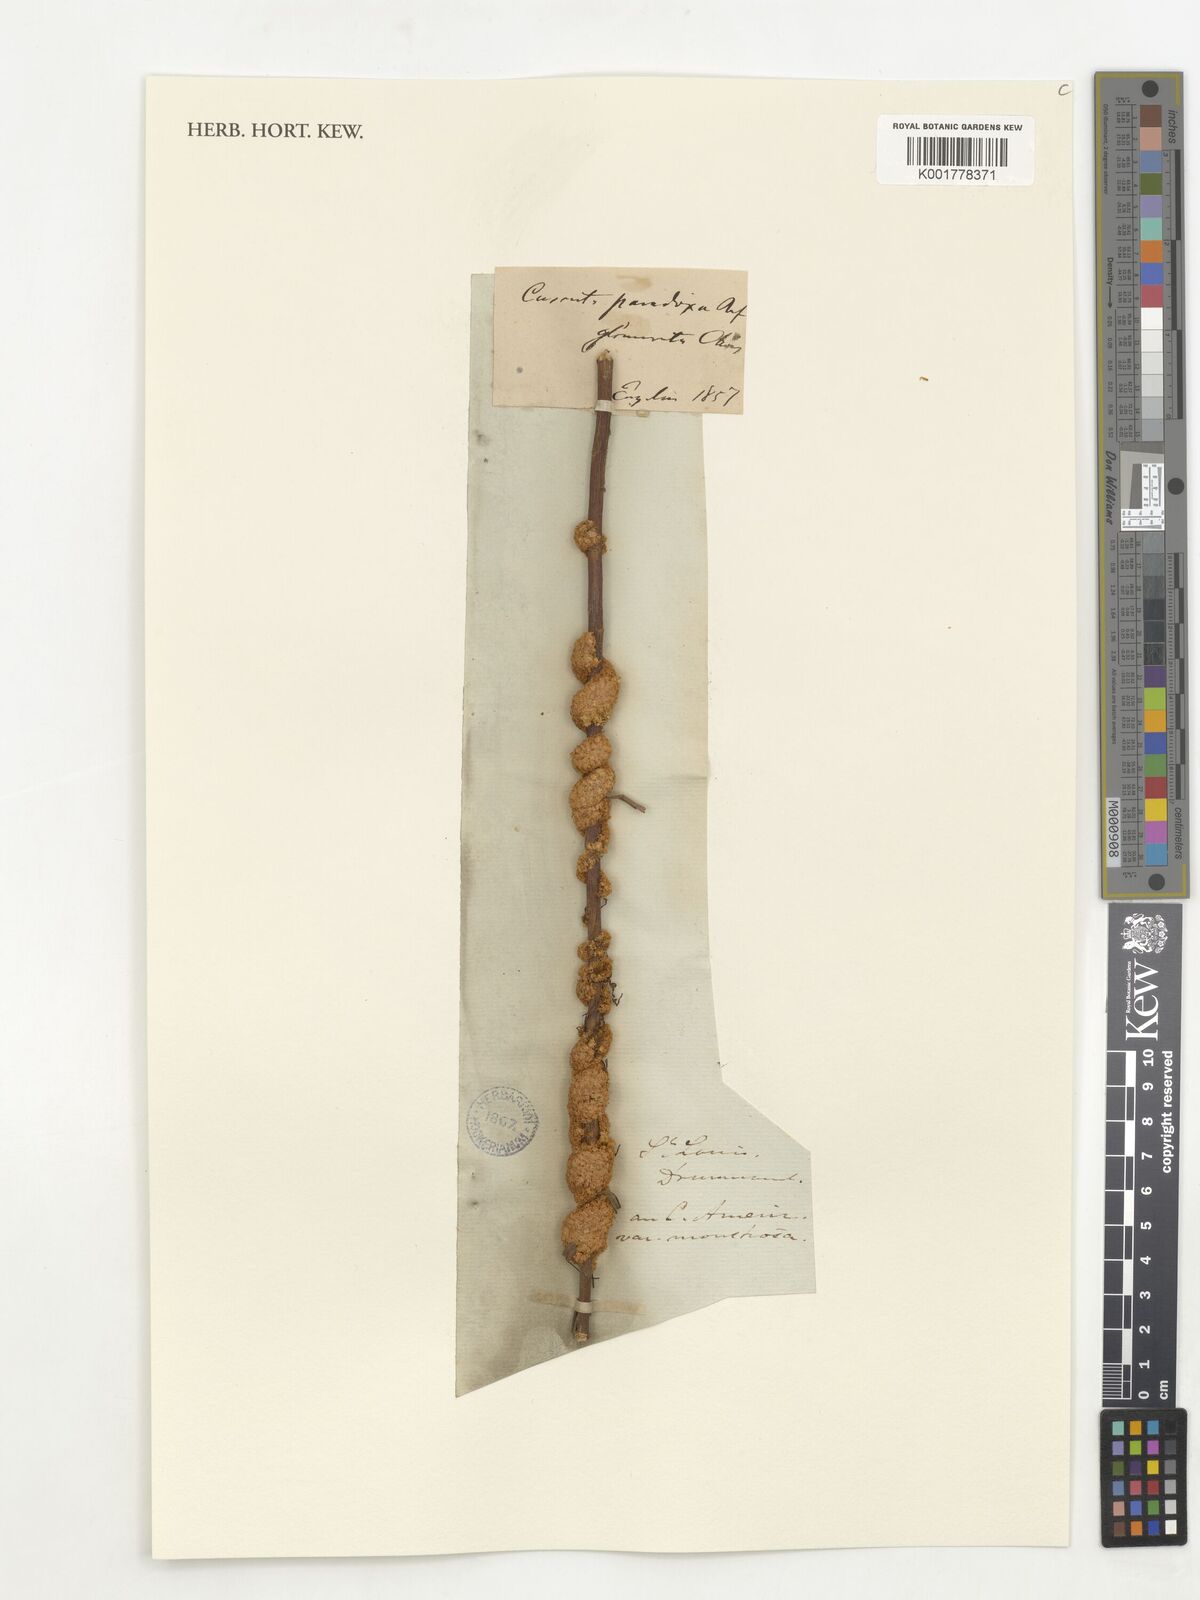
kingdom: Plantae
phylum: Tracheophyta
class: Magnoliopsida
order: Solanales
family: Convolvulaceae
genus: Cuscuta
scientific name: Cuscuta glomerata
